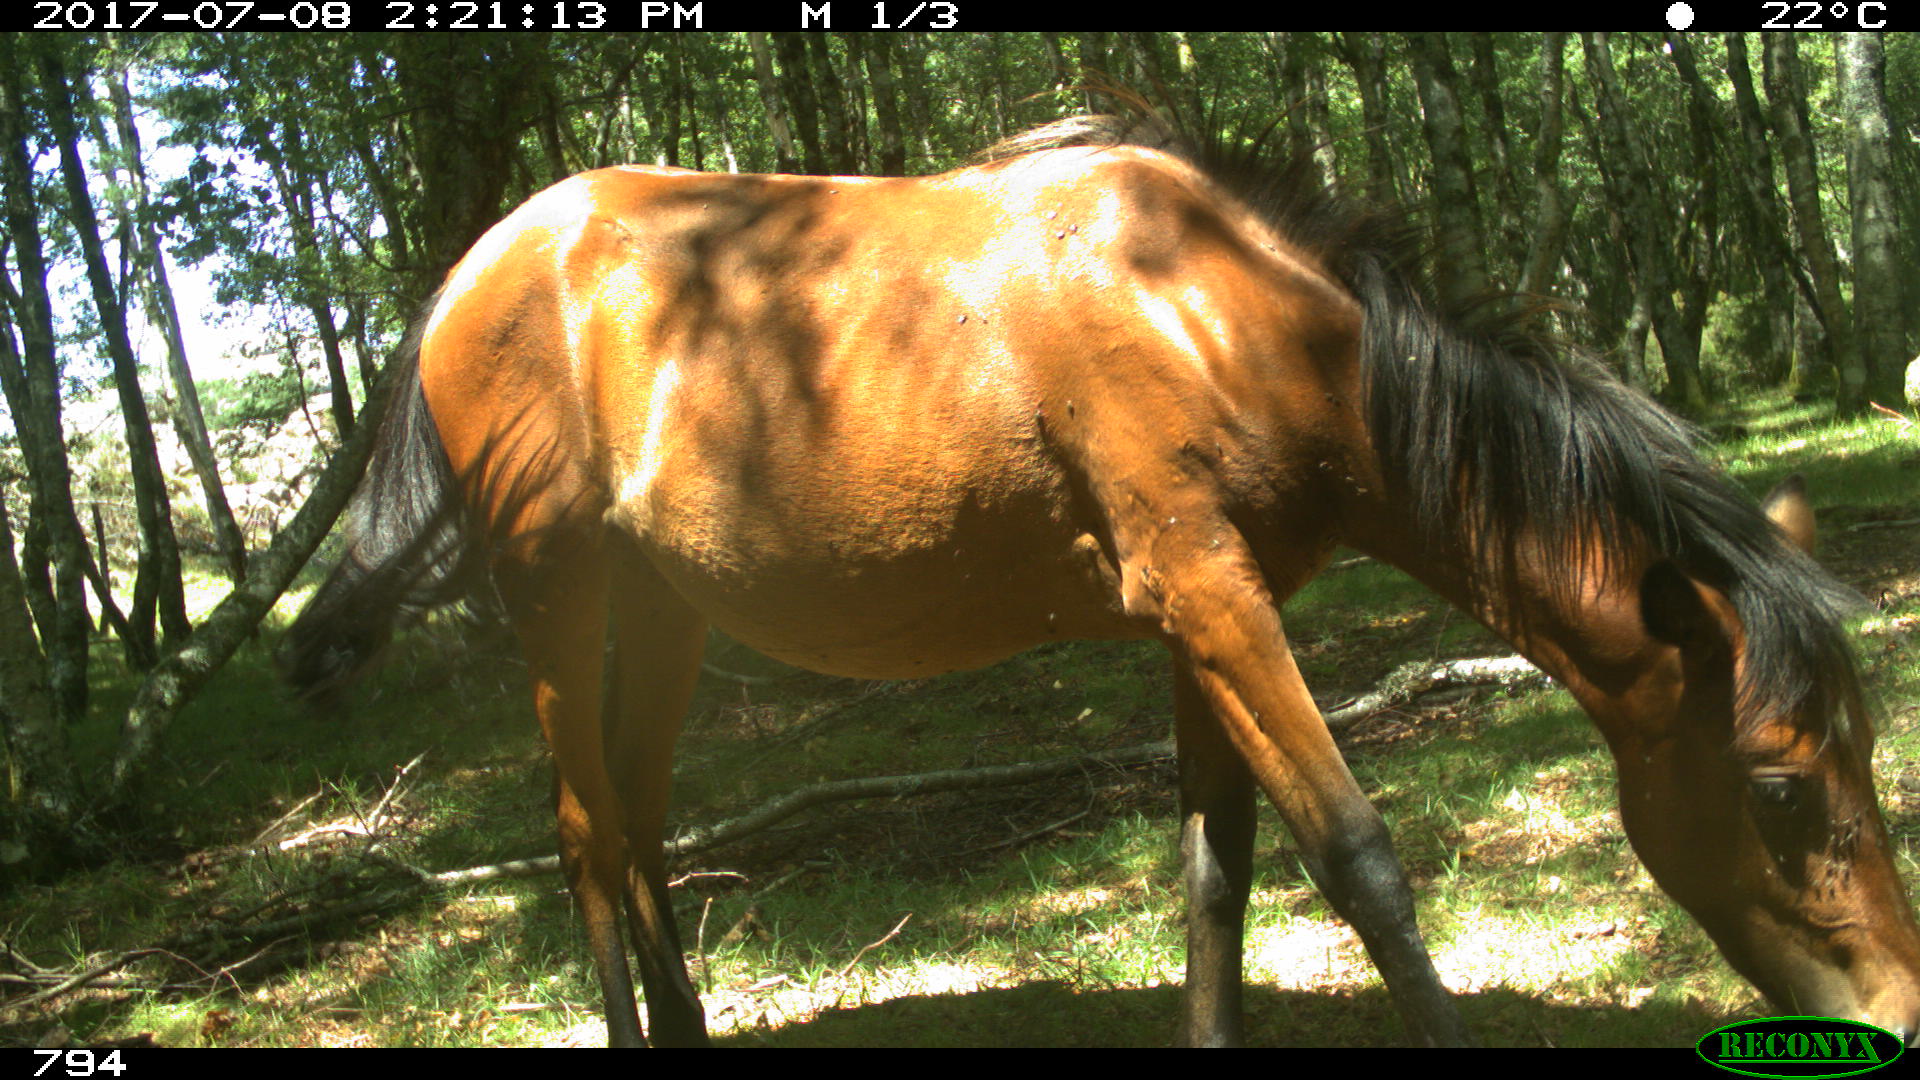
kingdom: Animalia
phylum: Chordata
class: Mammalia
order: Perissodactyla
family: Equidae
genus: Equus
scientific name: Equus caballus
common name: Horse
